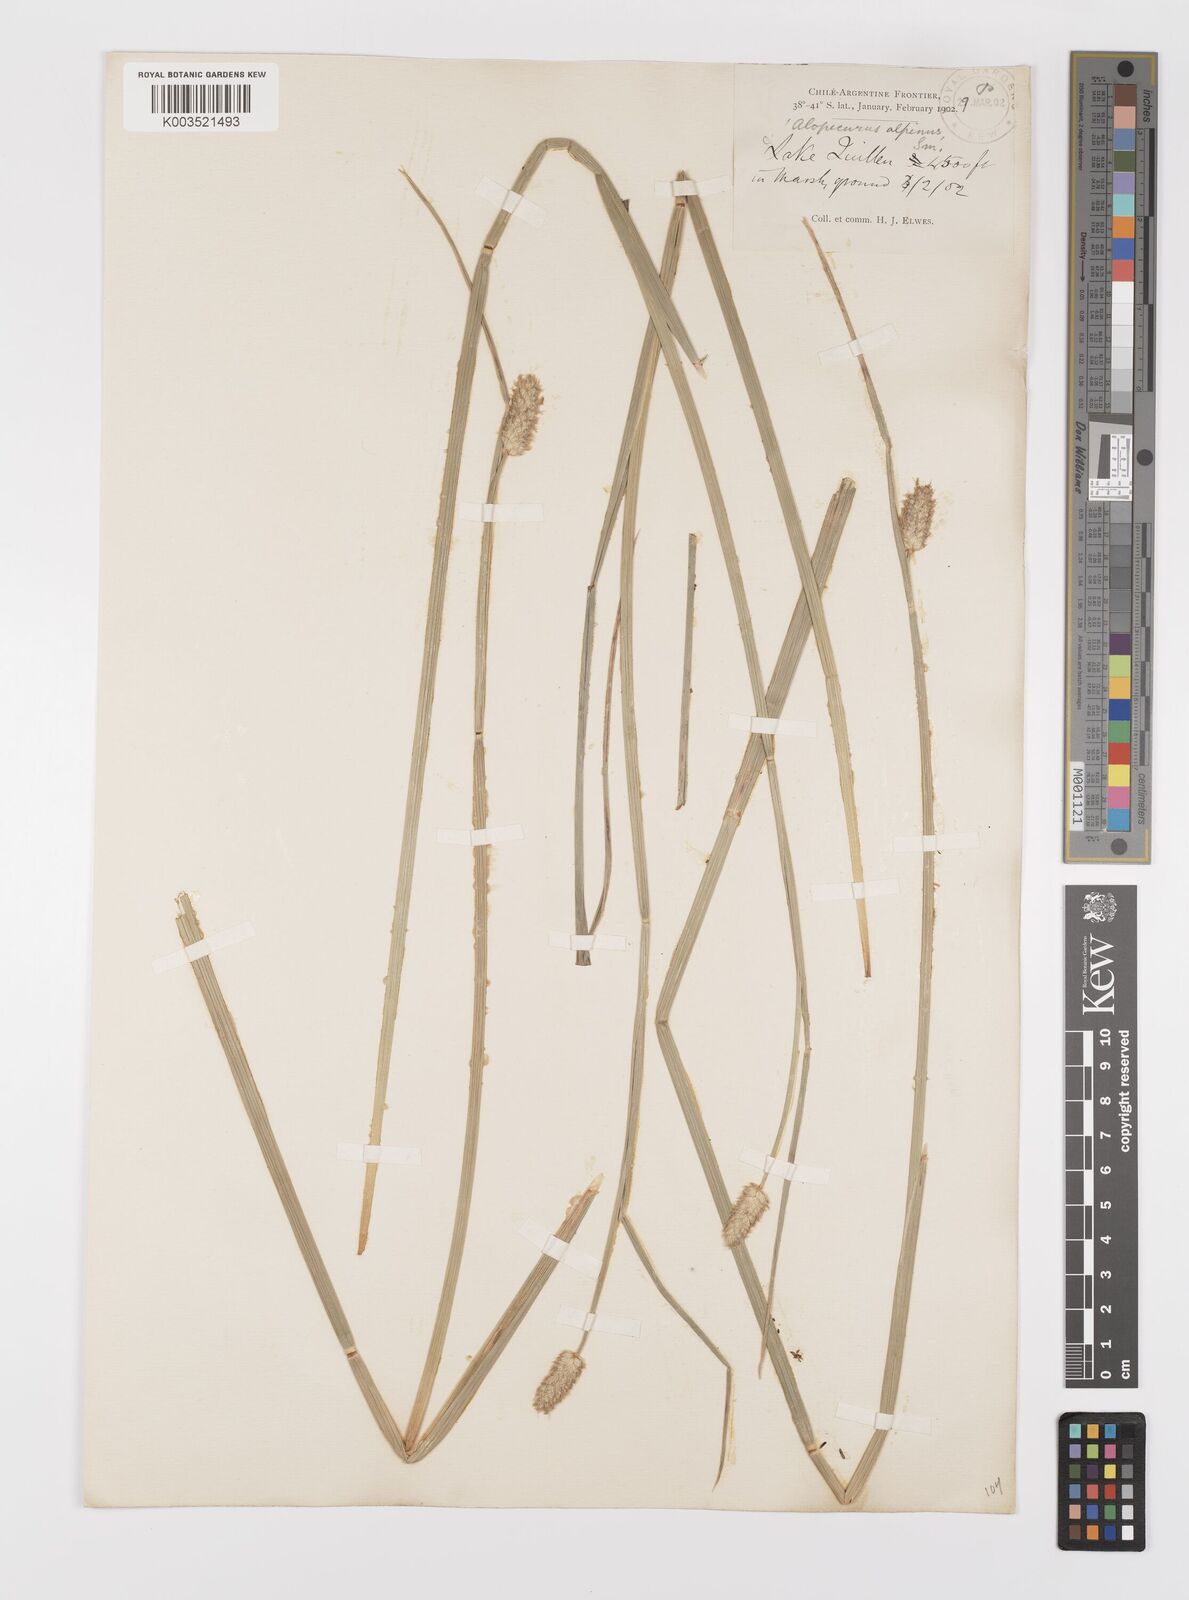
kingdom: Plantae
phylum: Tracheophyta
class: Liliopsida
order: Poales
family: Poaceae
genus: Alopecurus
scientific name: Alopecurus magellanicus
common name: Alpine foxtail
